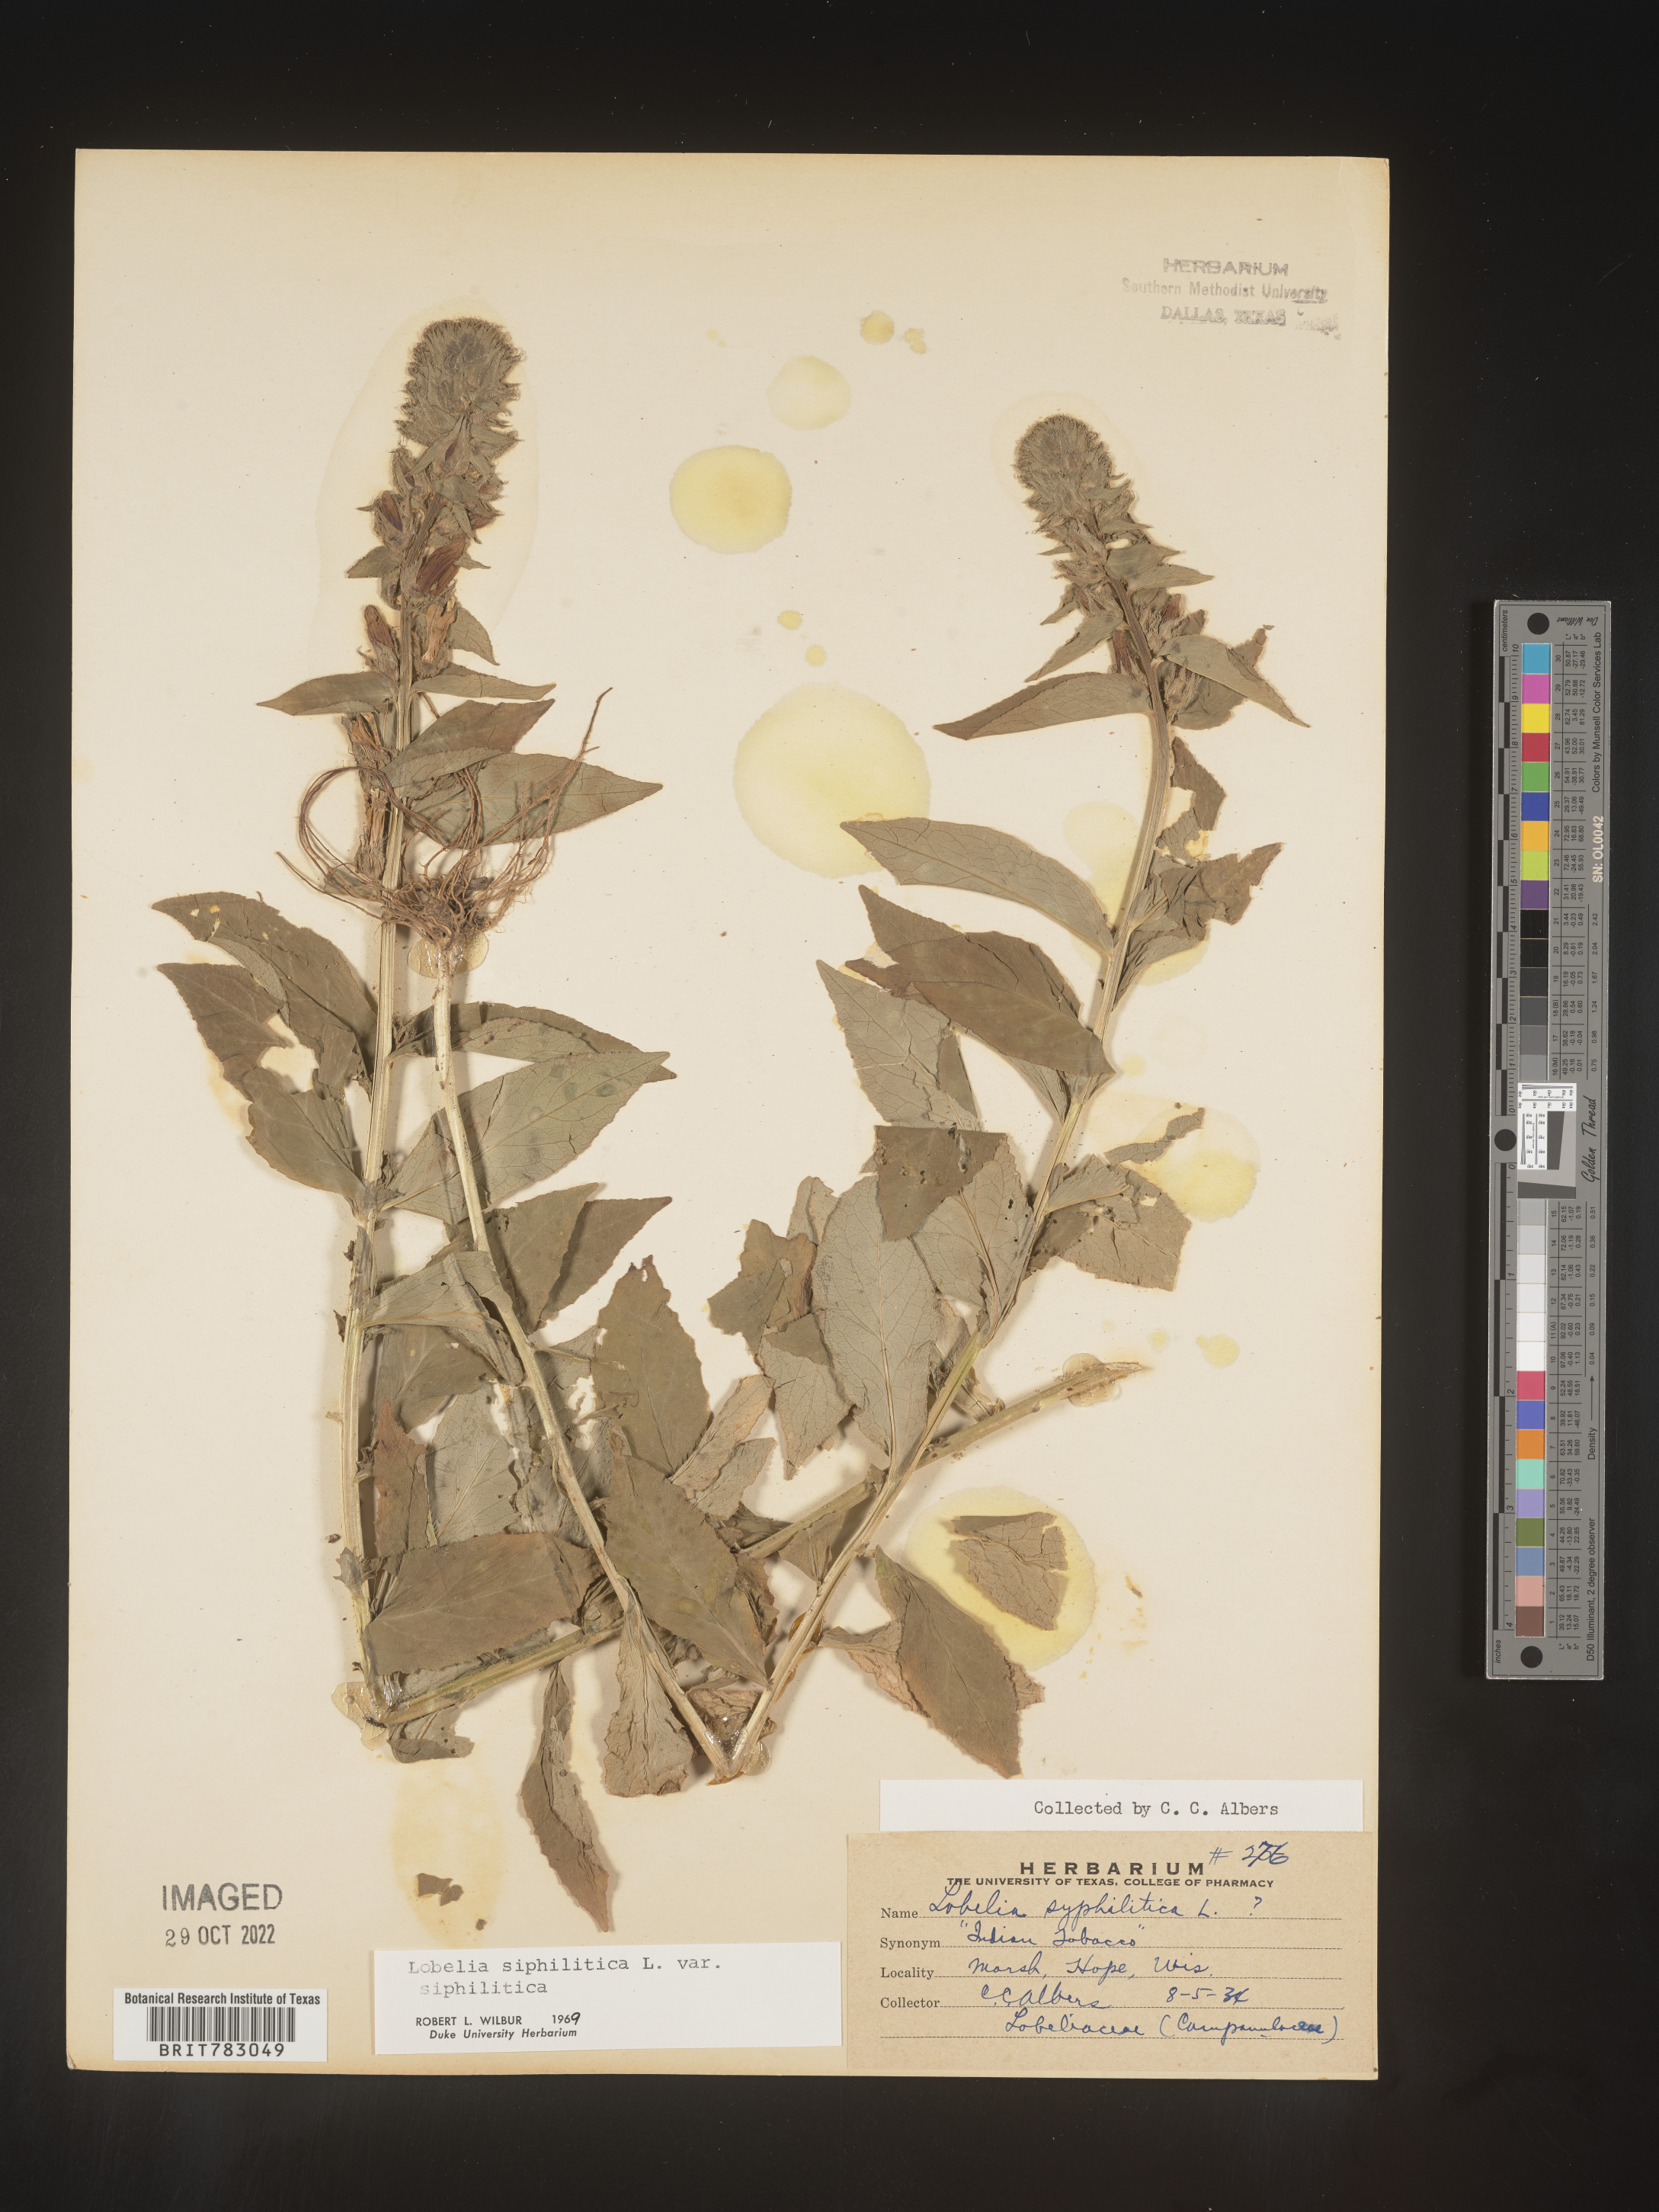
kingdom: Plantae
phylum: Tracheophyta
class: Magnoliopsida
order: Asterales
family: Campanulaceae
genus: Lobelia
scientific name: Lobelia siphilitica
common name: Great lobelia
